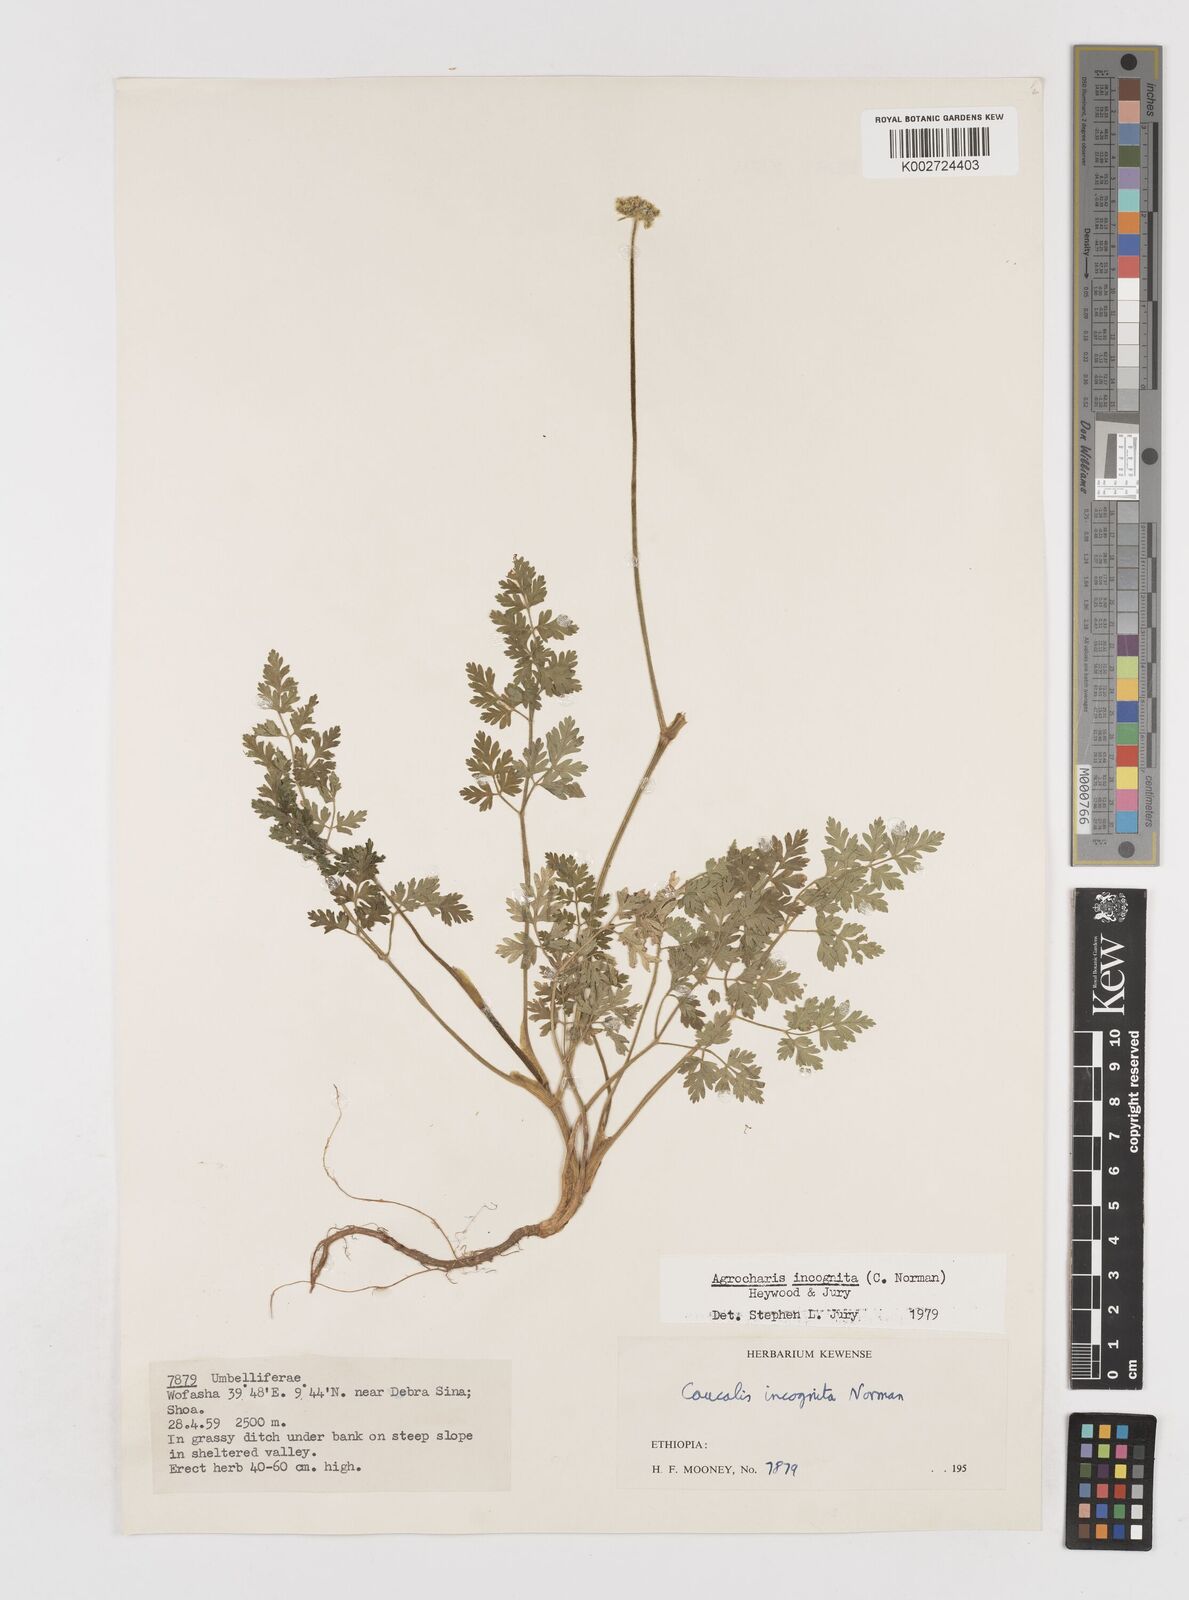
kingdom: Plantae
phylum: Tracheophyta
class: Magnoliopsida
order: Apiales
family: Apiaceae
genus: Daucus
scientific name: Daucus incognitus
